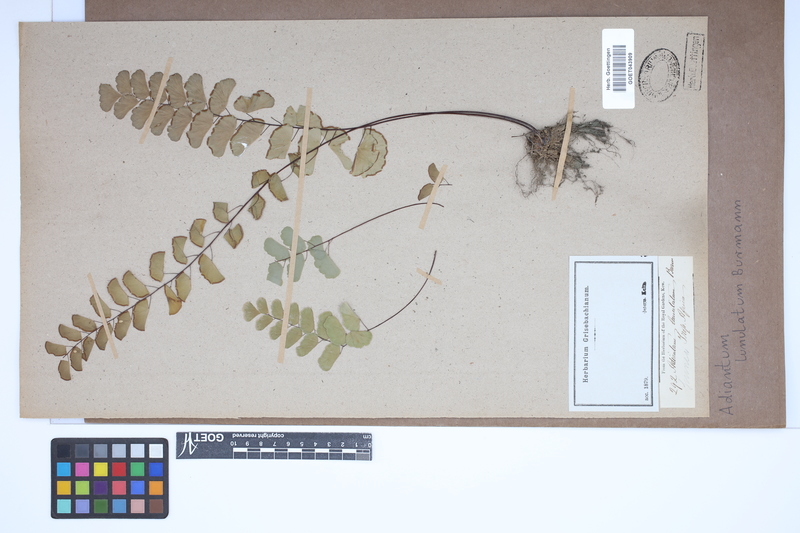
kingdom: Plantae
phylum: Tracheophyta
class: Polypodiopsida
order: Polypodiales
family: Pteridaceae
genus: Adiantum
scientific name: Adiantum philippense
